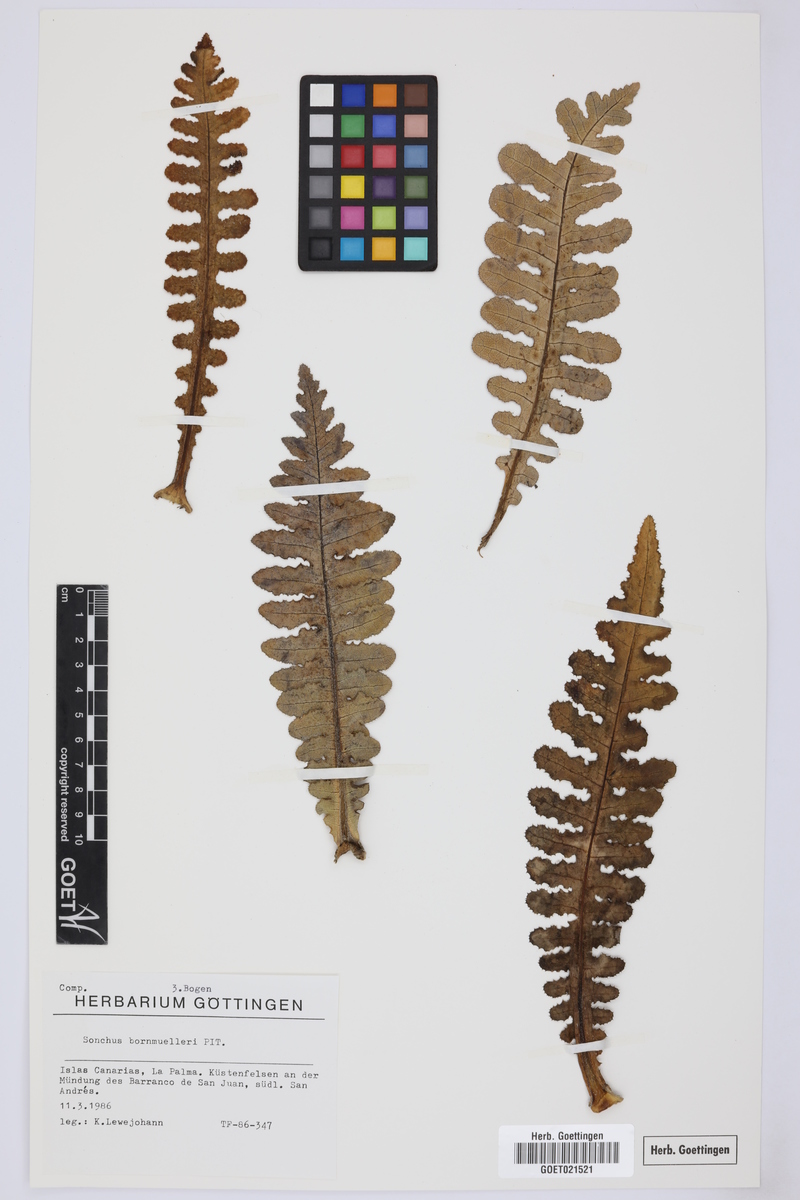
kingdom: Plantae
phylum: Tracheophyta
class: Magnoliopsida
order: Asterales
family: Asteraceae
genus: Sonchus
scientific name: Sonchus bornmuelleri
